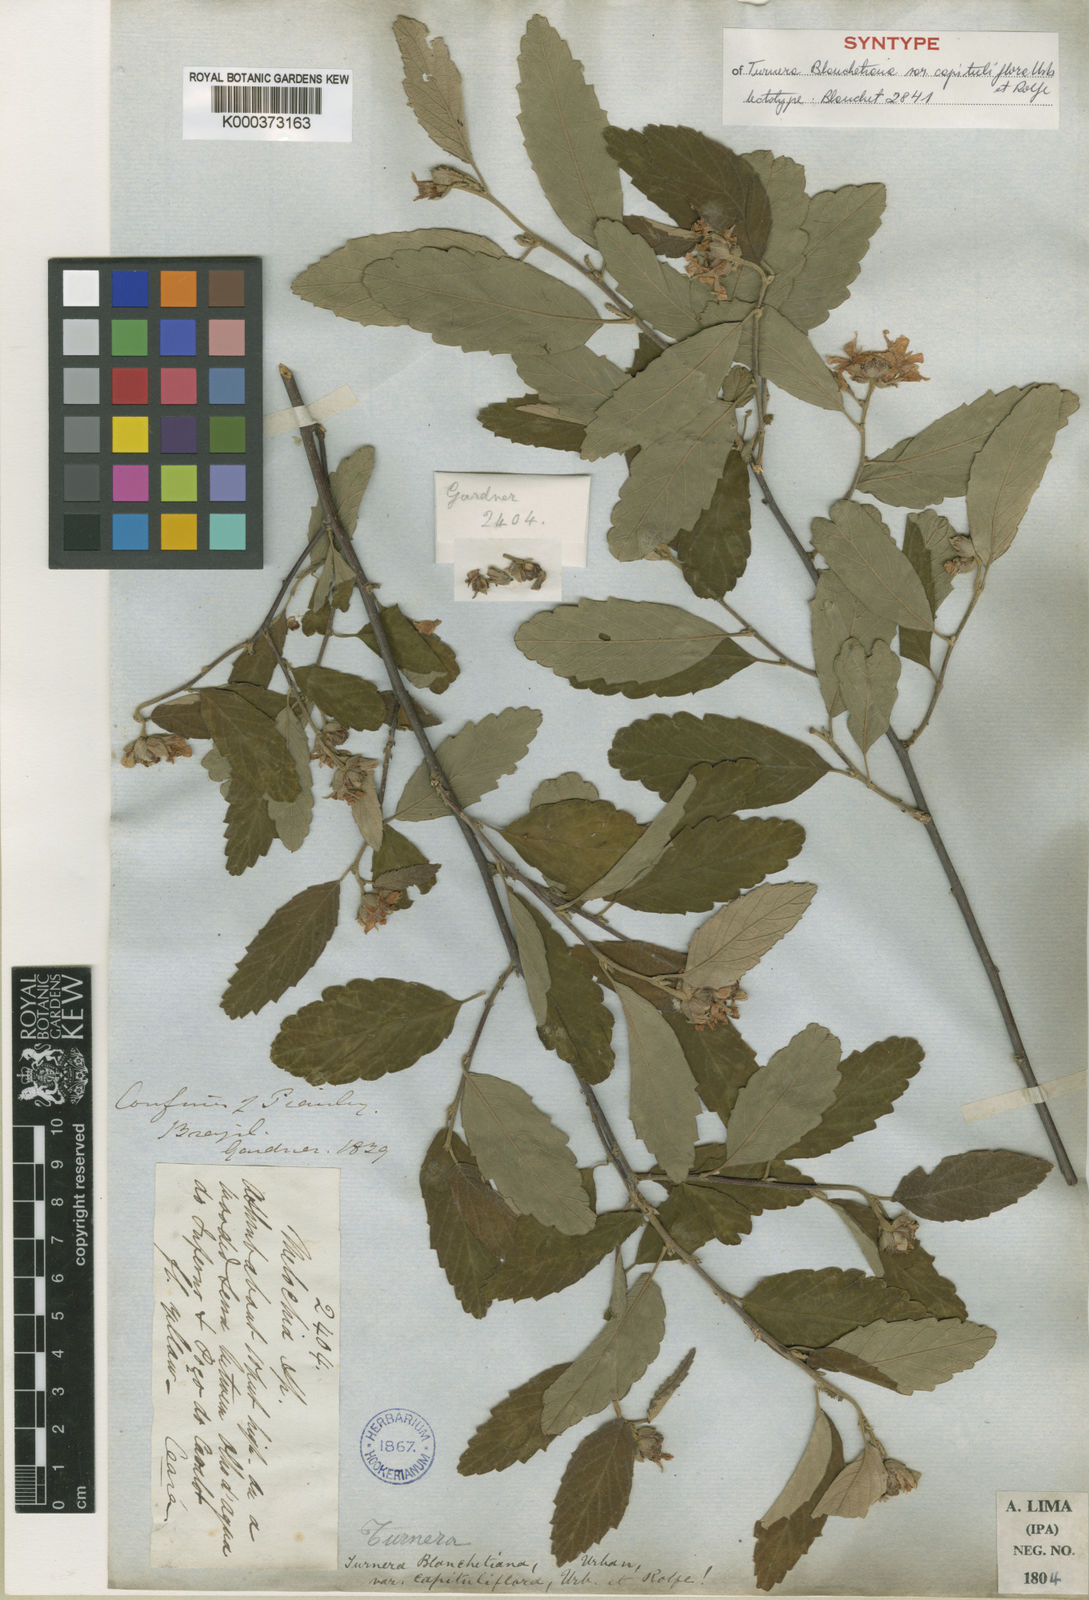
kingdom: Plantae
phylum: Tracheophyta
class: Magnoliopsida
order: Malpighiales
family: Turneraceae
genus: Turnera
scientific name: Turnera blanchetiana
